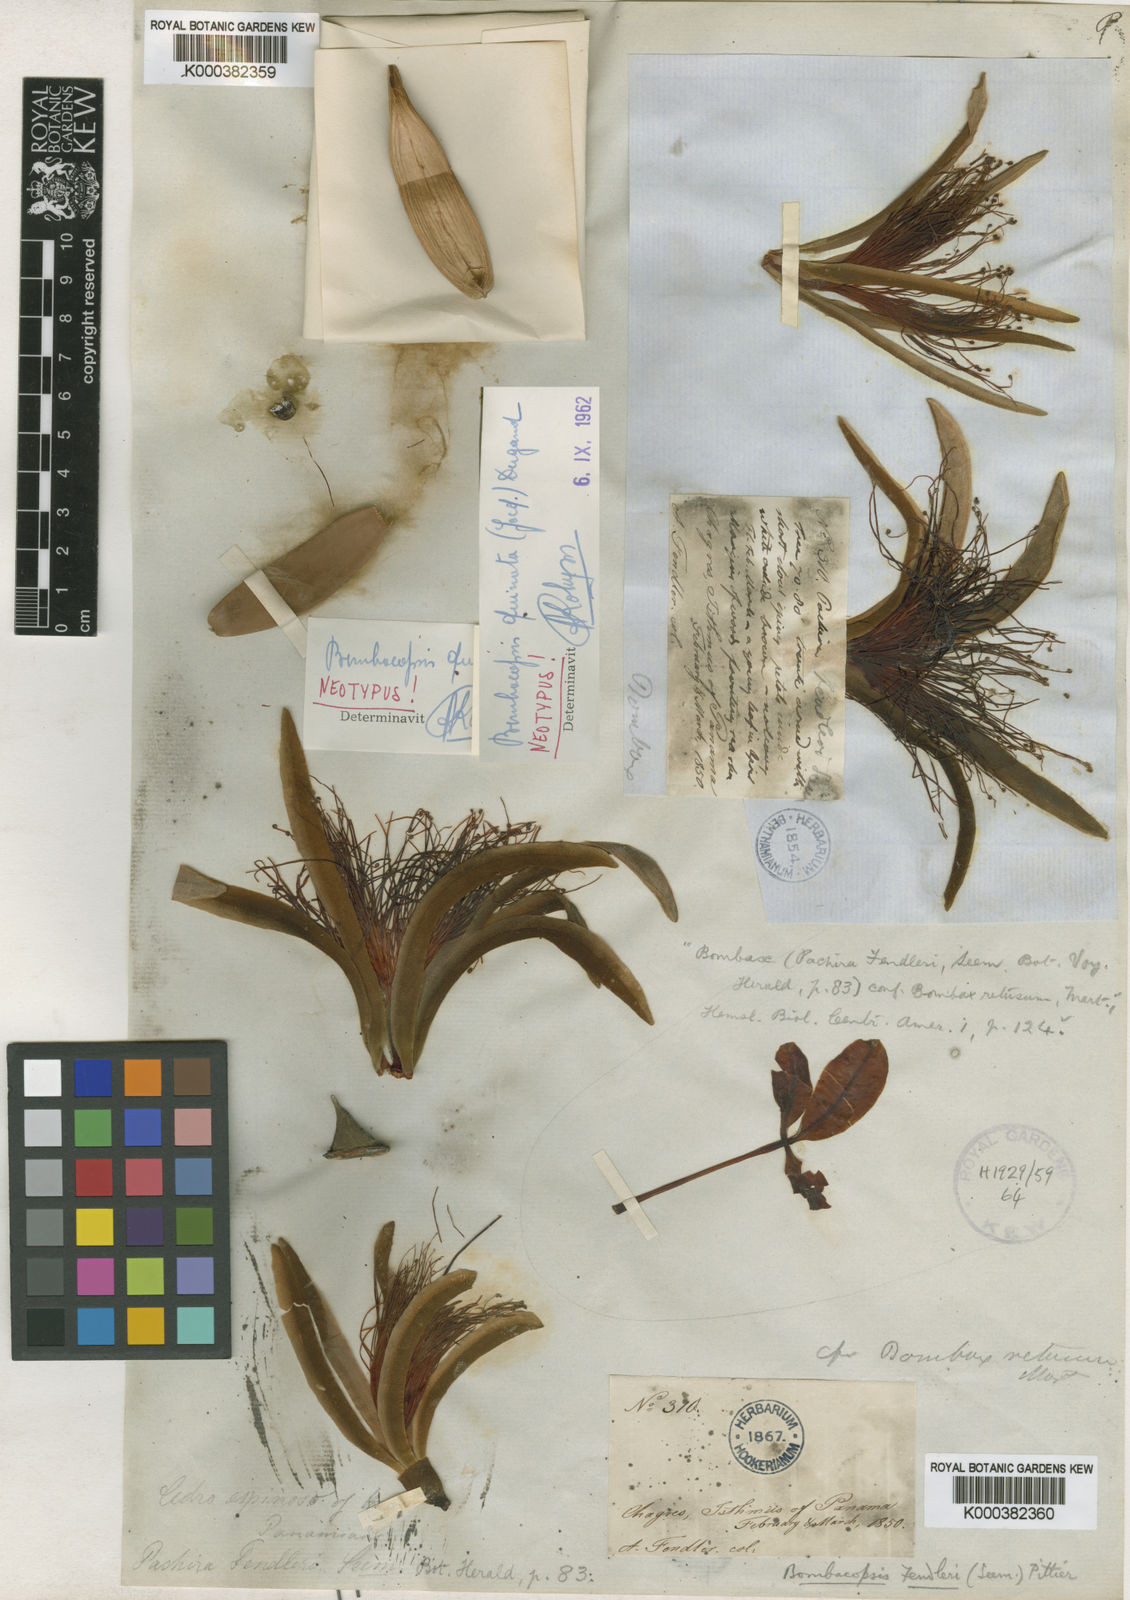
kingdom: Plantae
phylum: Tracheophyta
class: Magnoliopsida
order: Malvales
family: Malvaceae
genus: Pochota
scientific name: Pochota fendleri
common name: Chestnut
